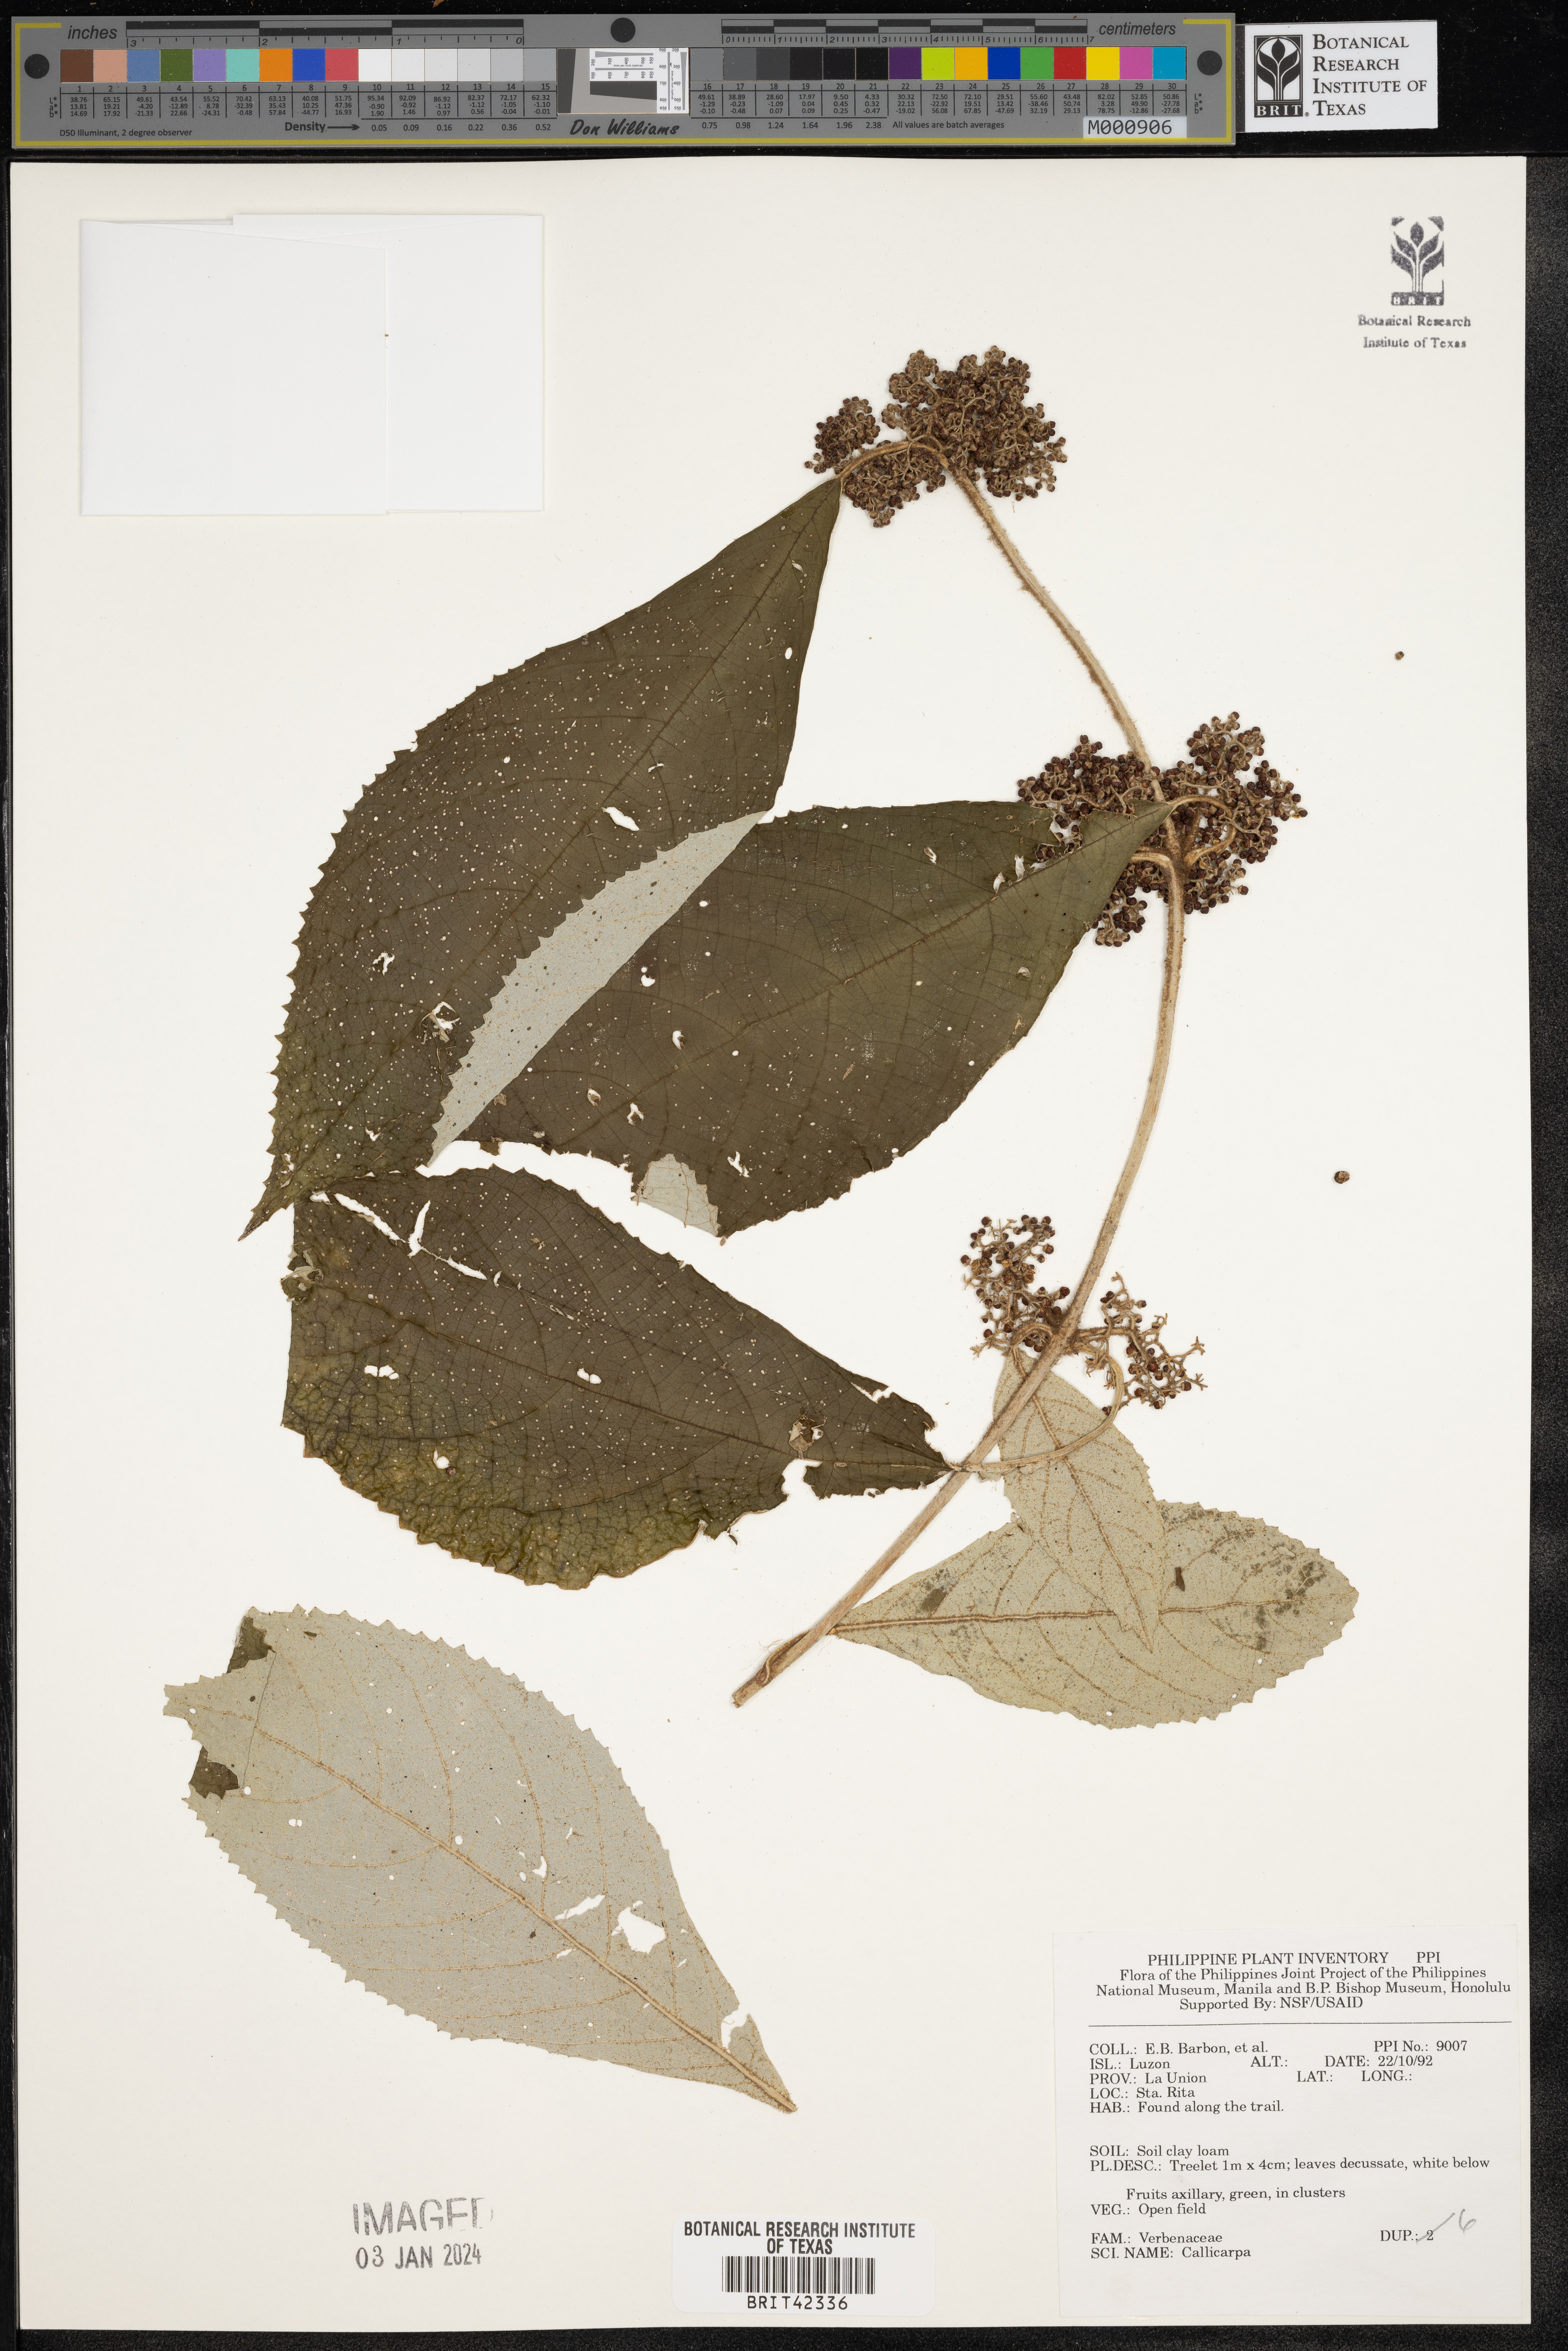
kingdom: Plantae
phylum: Tracheophyta
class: Magnoliopsida
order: Lamiales
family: Lamiaceae
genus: Callicarpa
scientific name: Callicarpa
